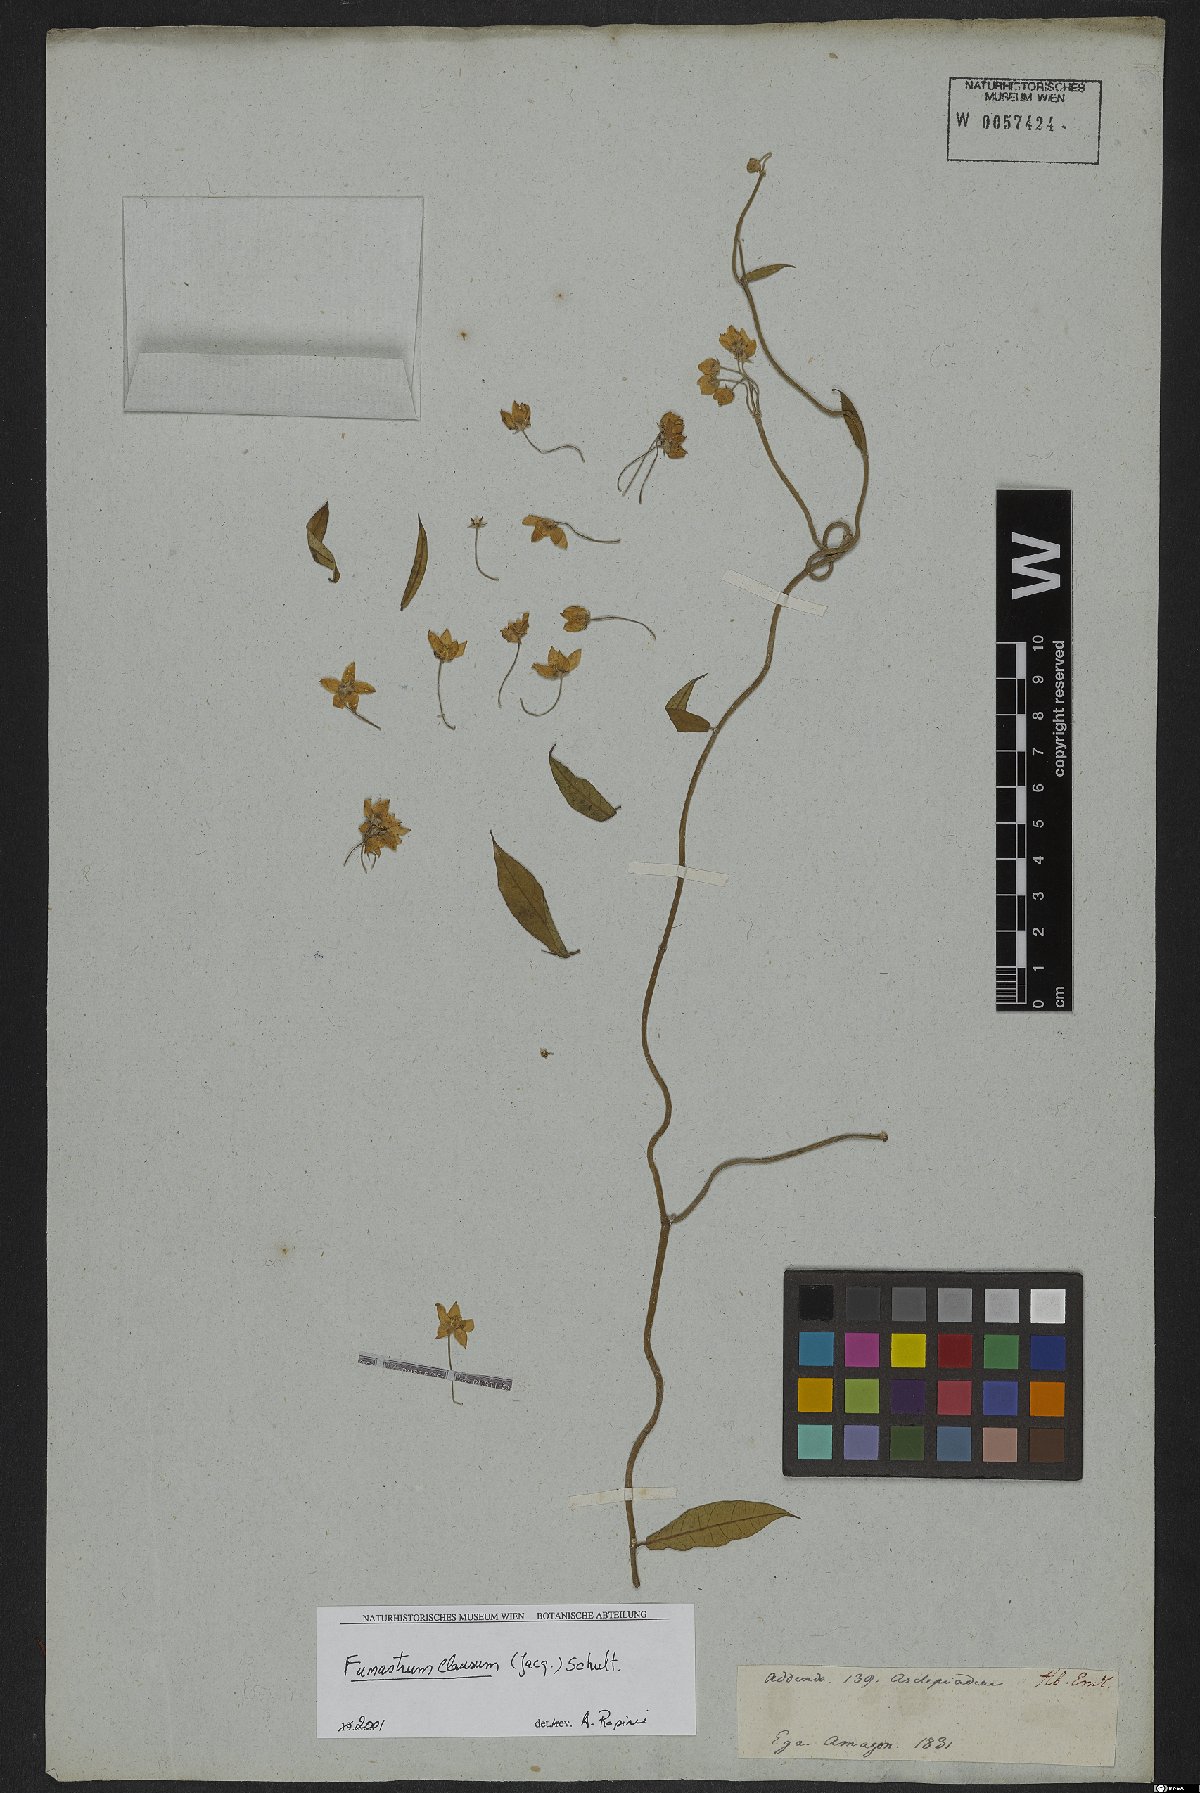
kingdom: Plantae
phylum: Tracheophyta
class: Magnoliopsida
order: Gentianales
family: Apocynaceae
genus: Funastrum
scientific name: Funastrum clausum
